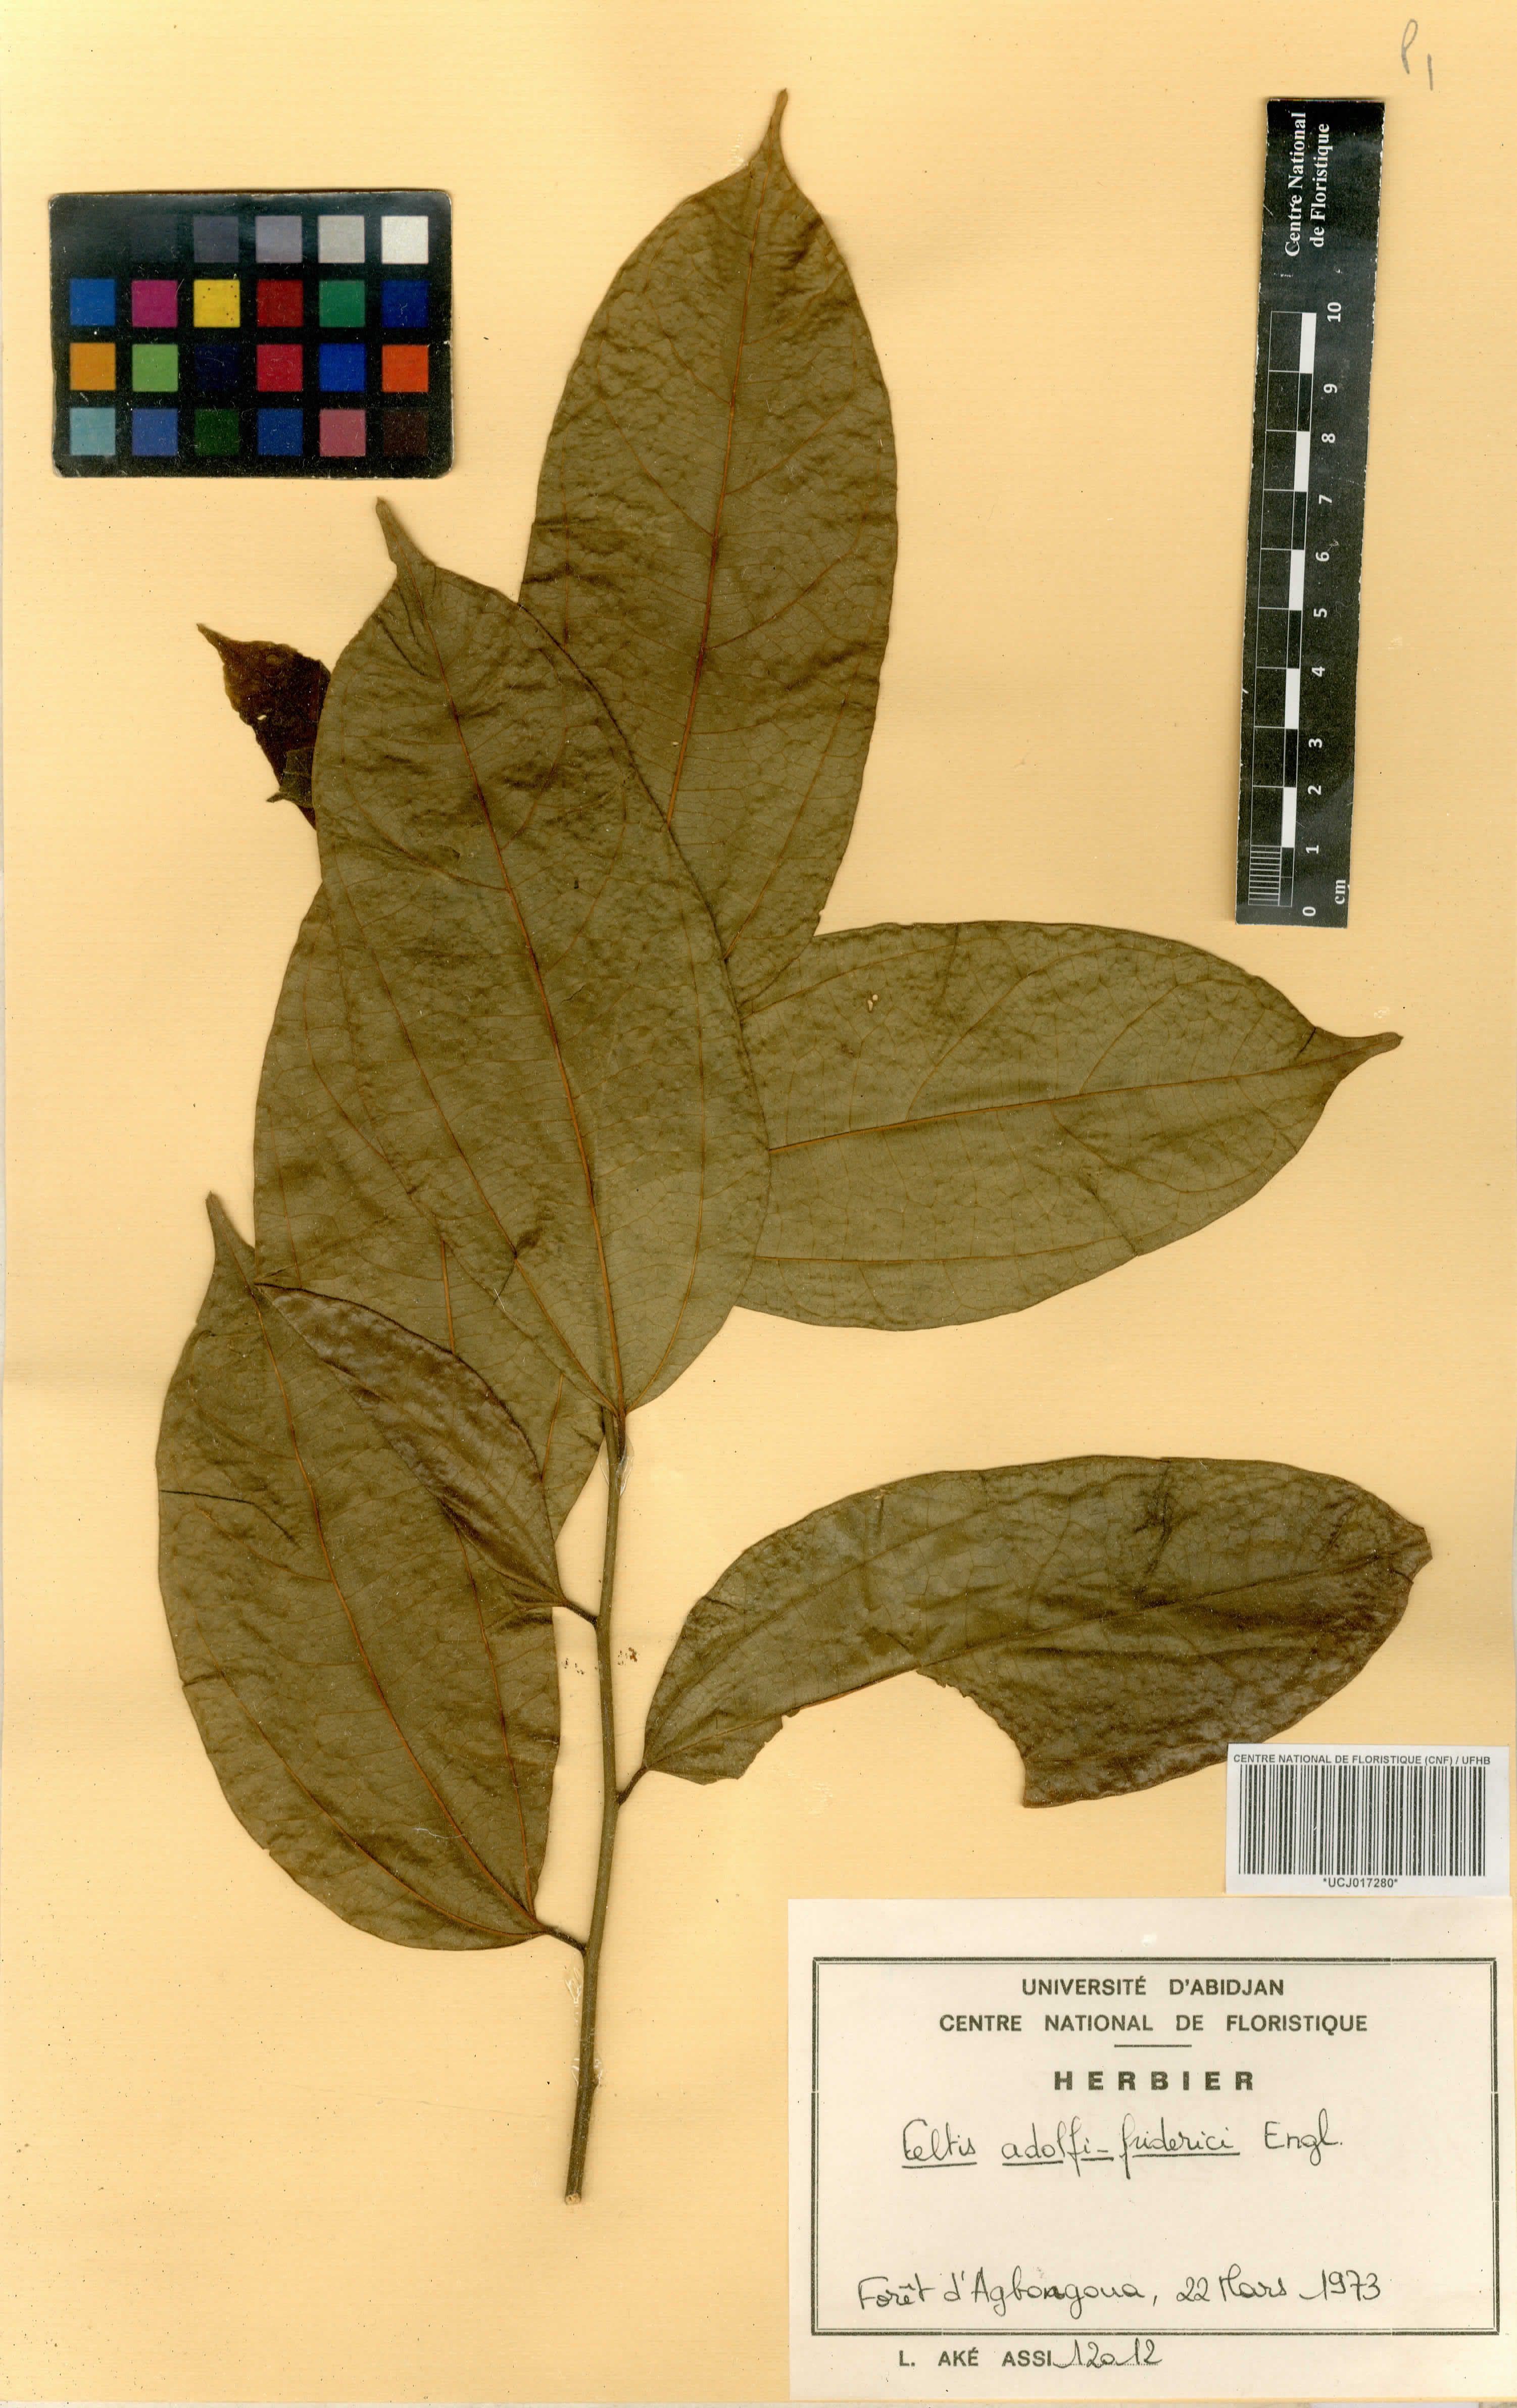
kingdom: Plantae
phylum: Tracheophyta
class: Magnoliopsida
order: Rosales
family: Cannabaceae
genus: Celtis
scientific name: Celtis adolfi-friderici
